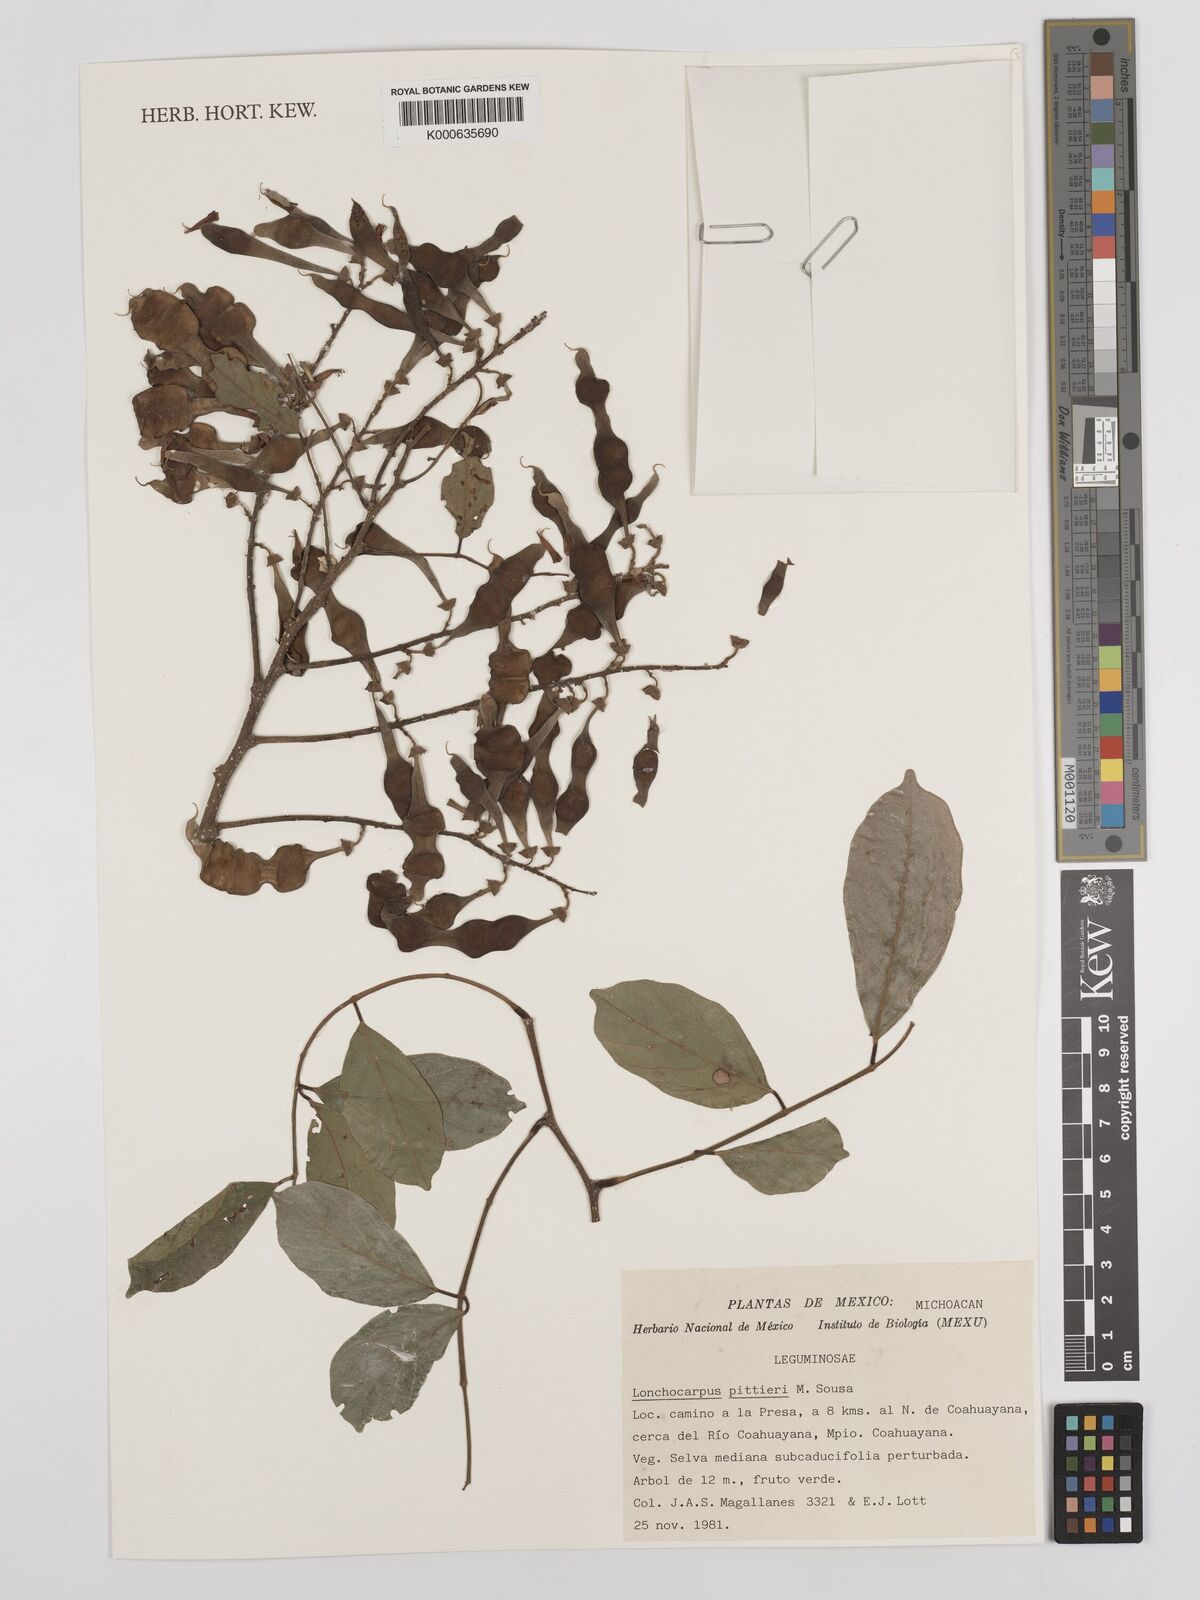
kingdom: Plantae
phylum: Tracheophyta
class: Magnoliopsida
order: Fabales
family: Fabaceae
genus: Lonchocarpus
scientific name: Lonchocarpus pittieri
